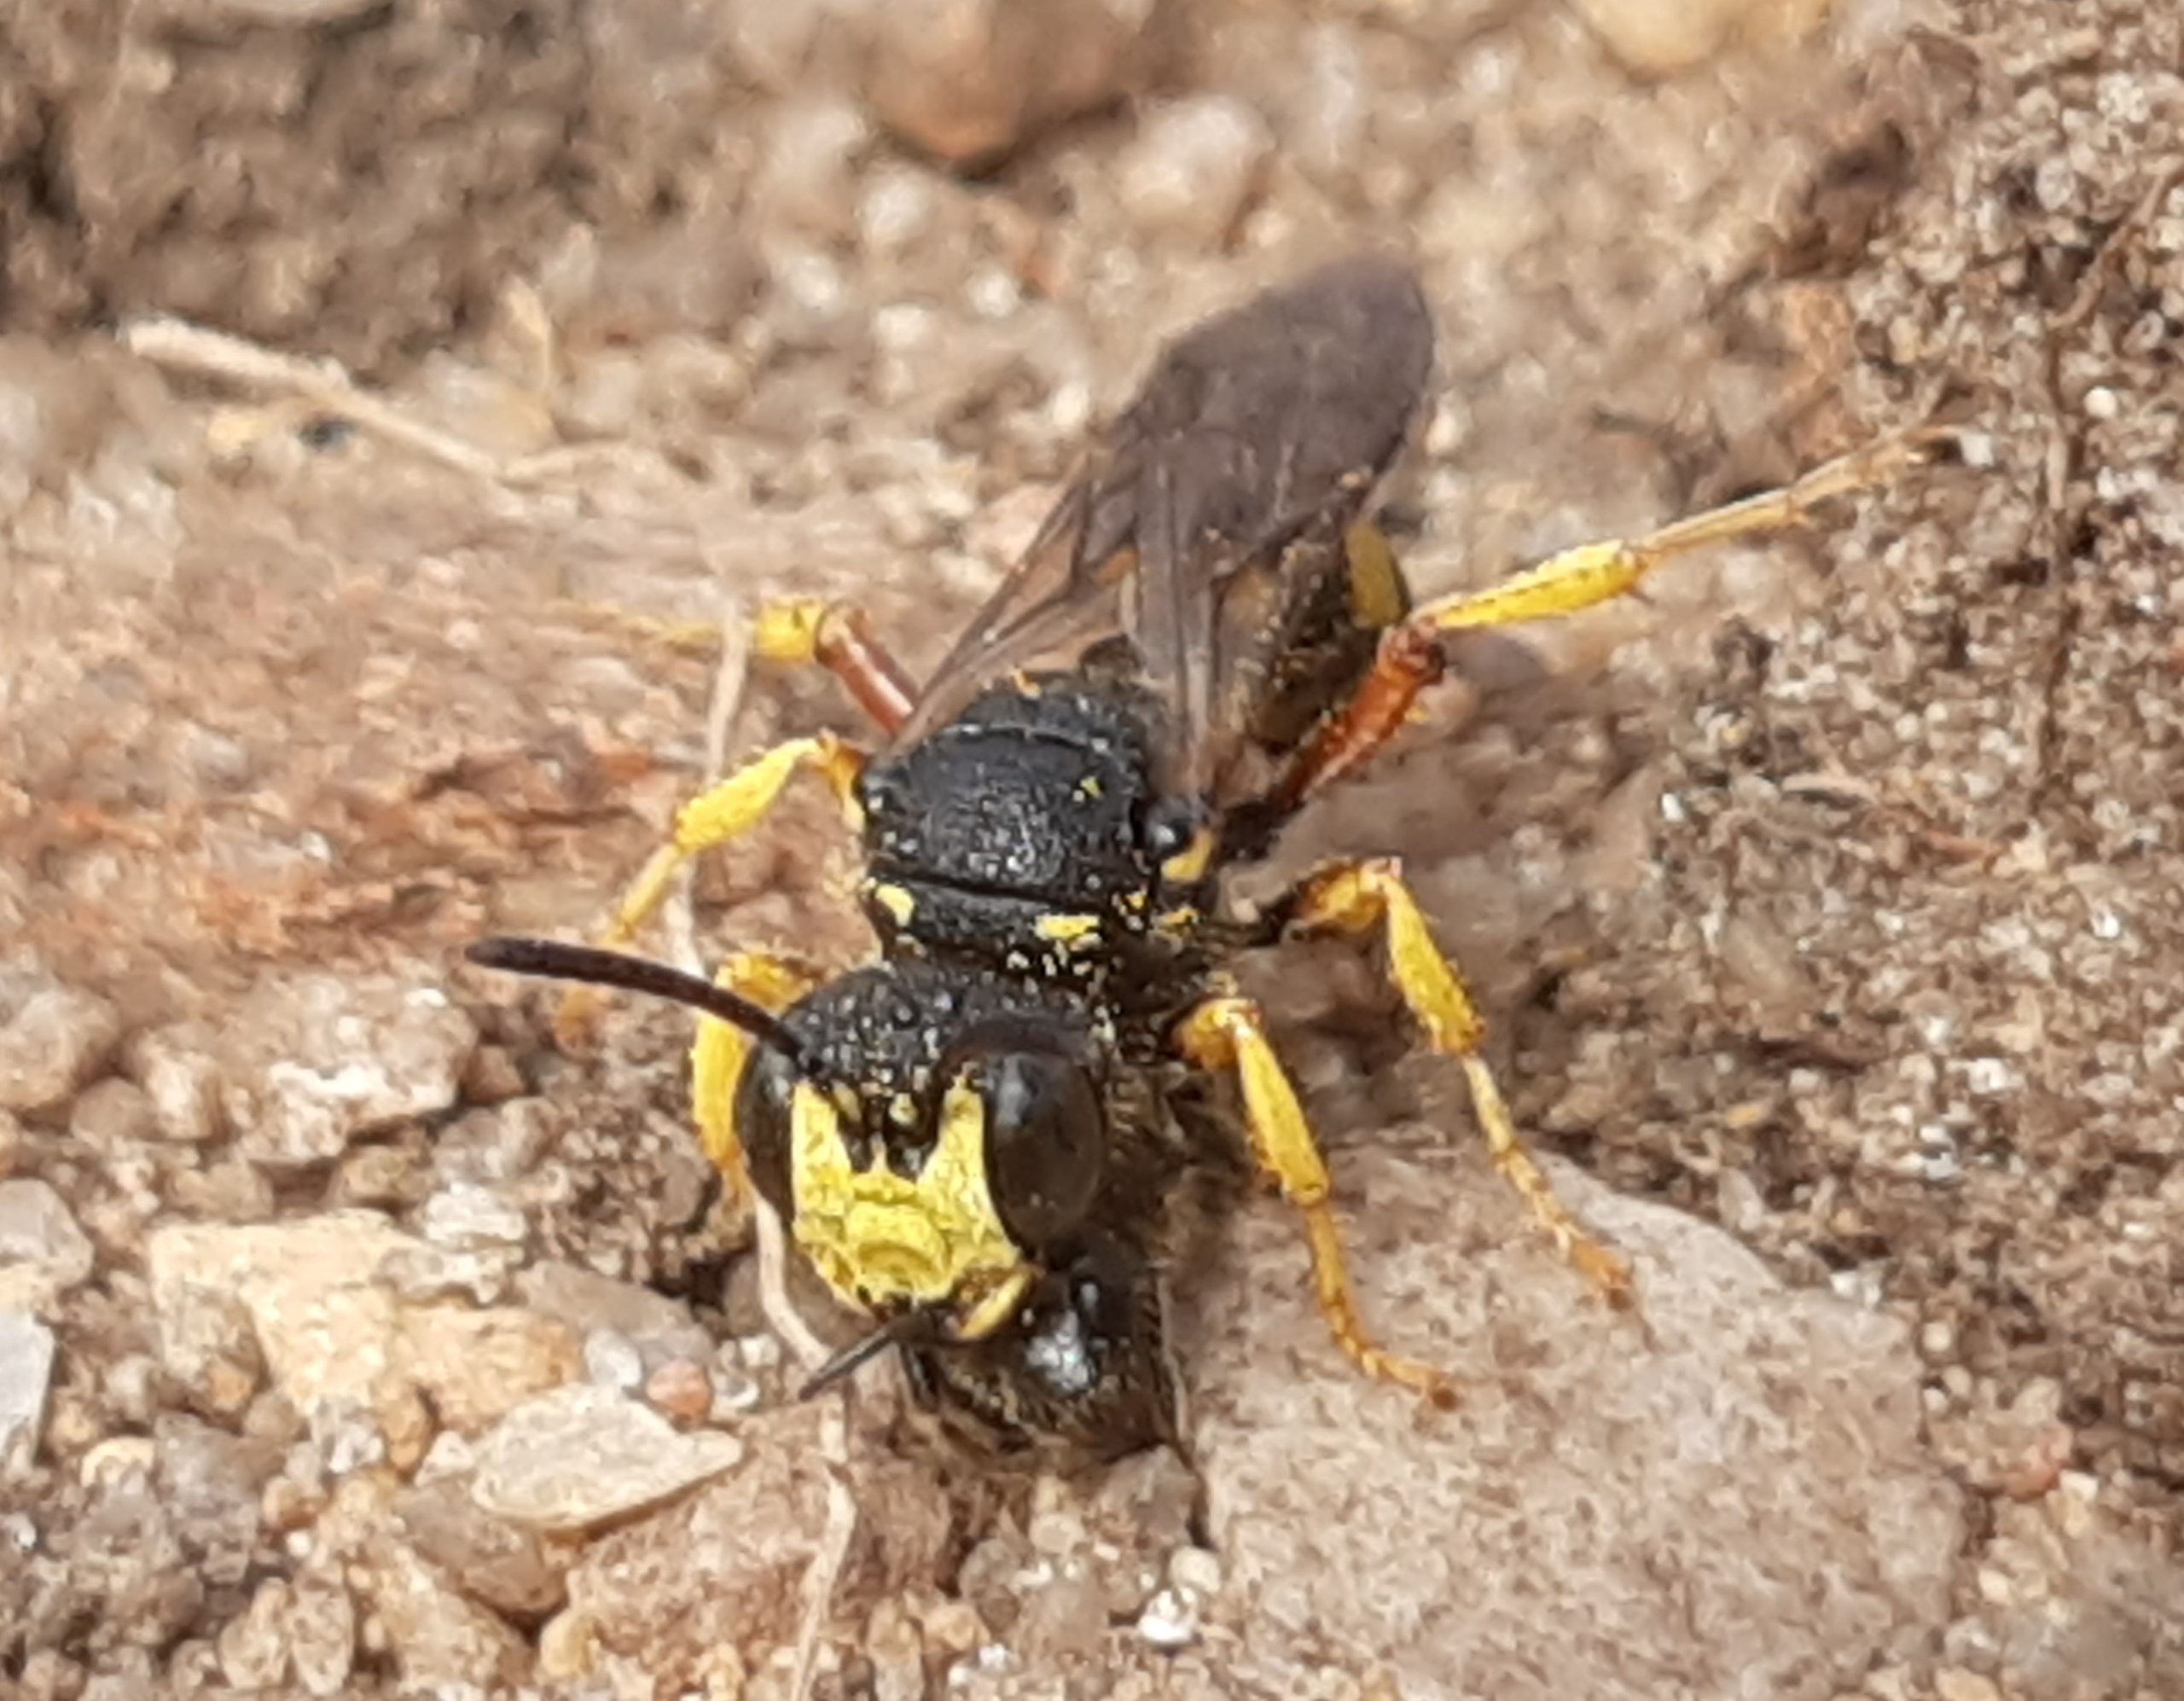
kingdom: Animalia
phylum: Arthropoda
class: Insecta
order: Hymenoptera
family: Crabronidae
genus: Cerceris
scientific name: Cerceris rybyensis
